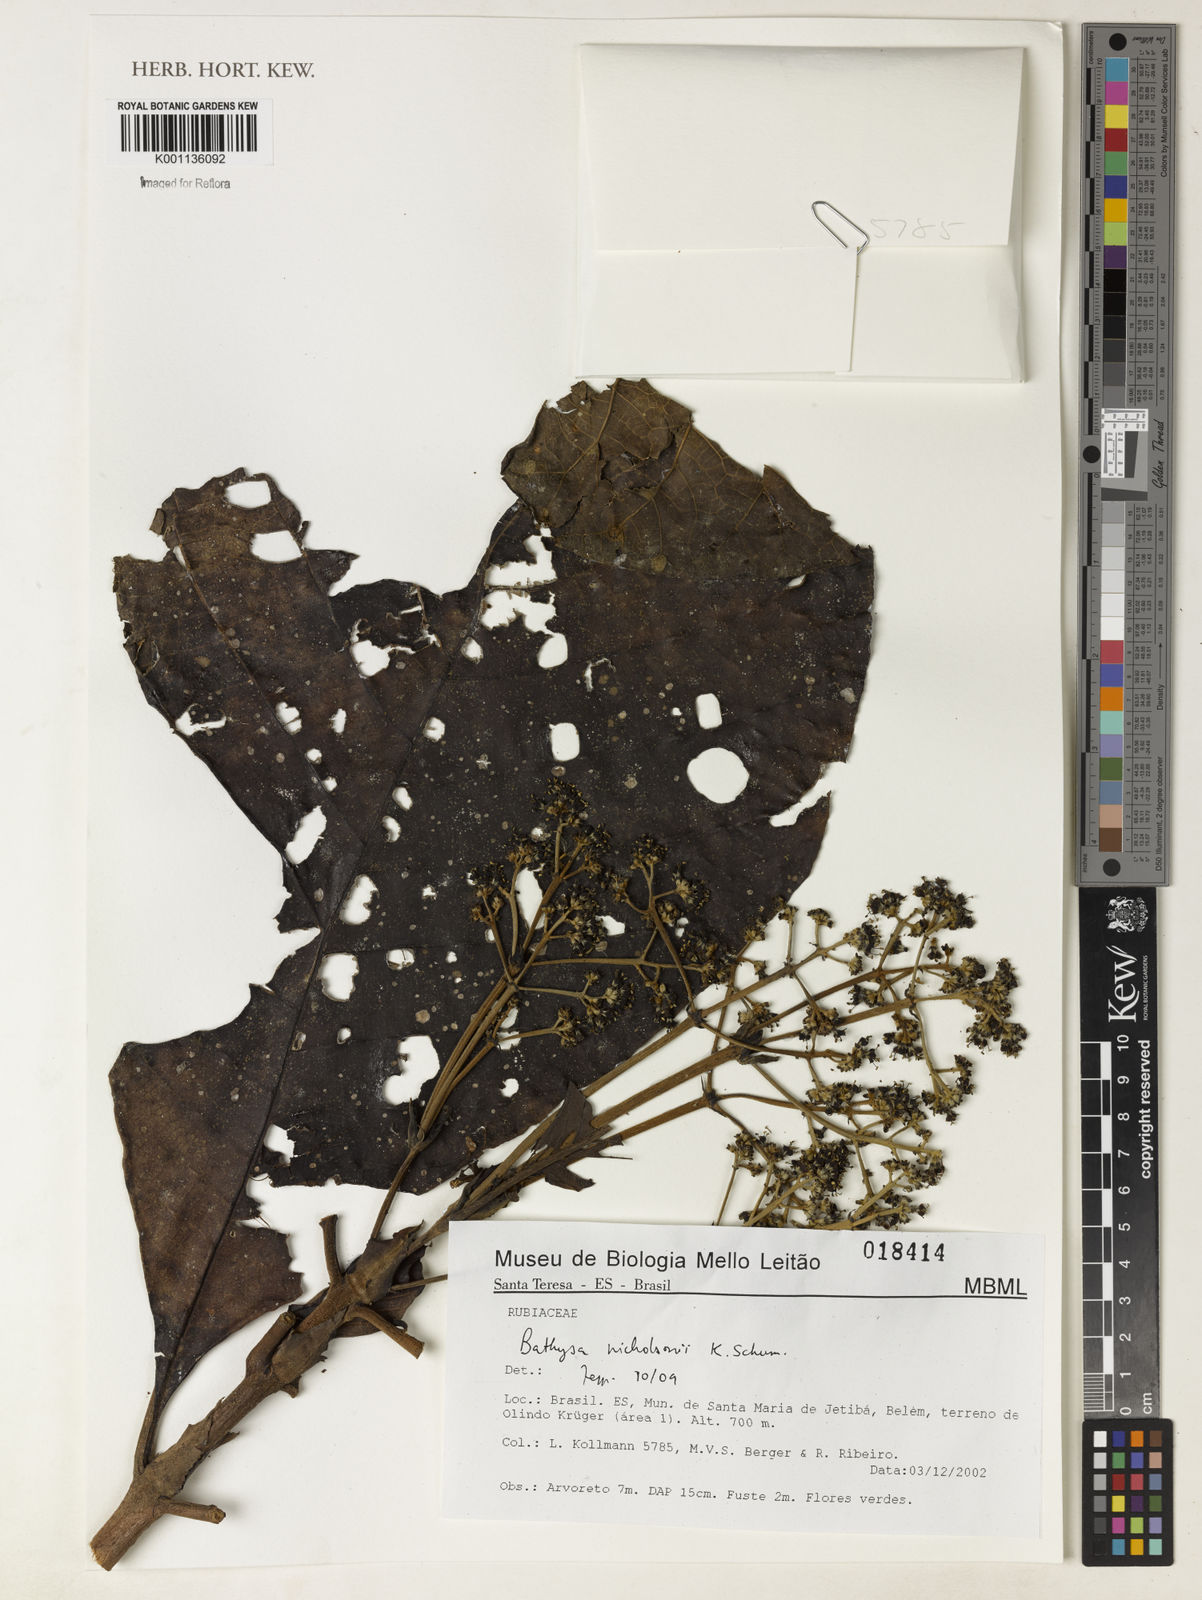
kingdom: Plantae
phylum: Tracheophyta
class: Magnoliopsida
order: Gentianales
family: Rubiaceae
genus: Bathysa
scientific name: Bathysa nicholsonii
